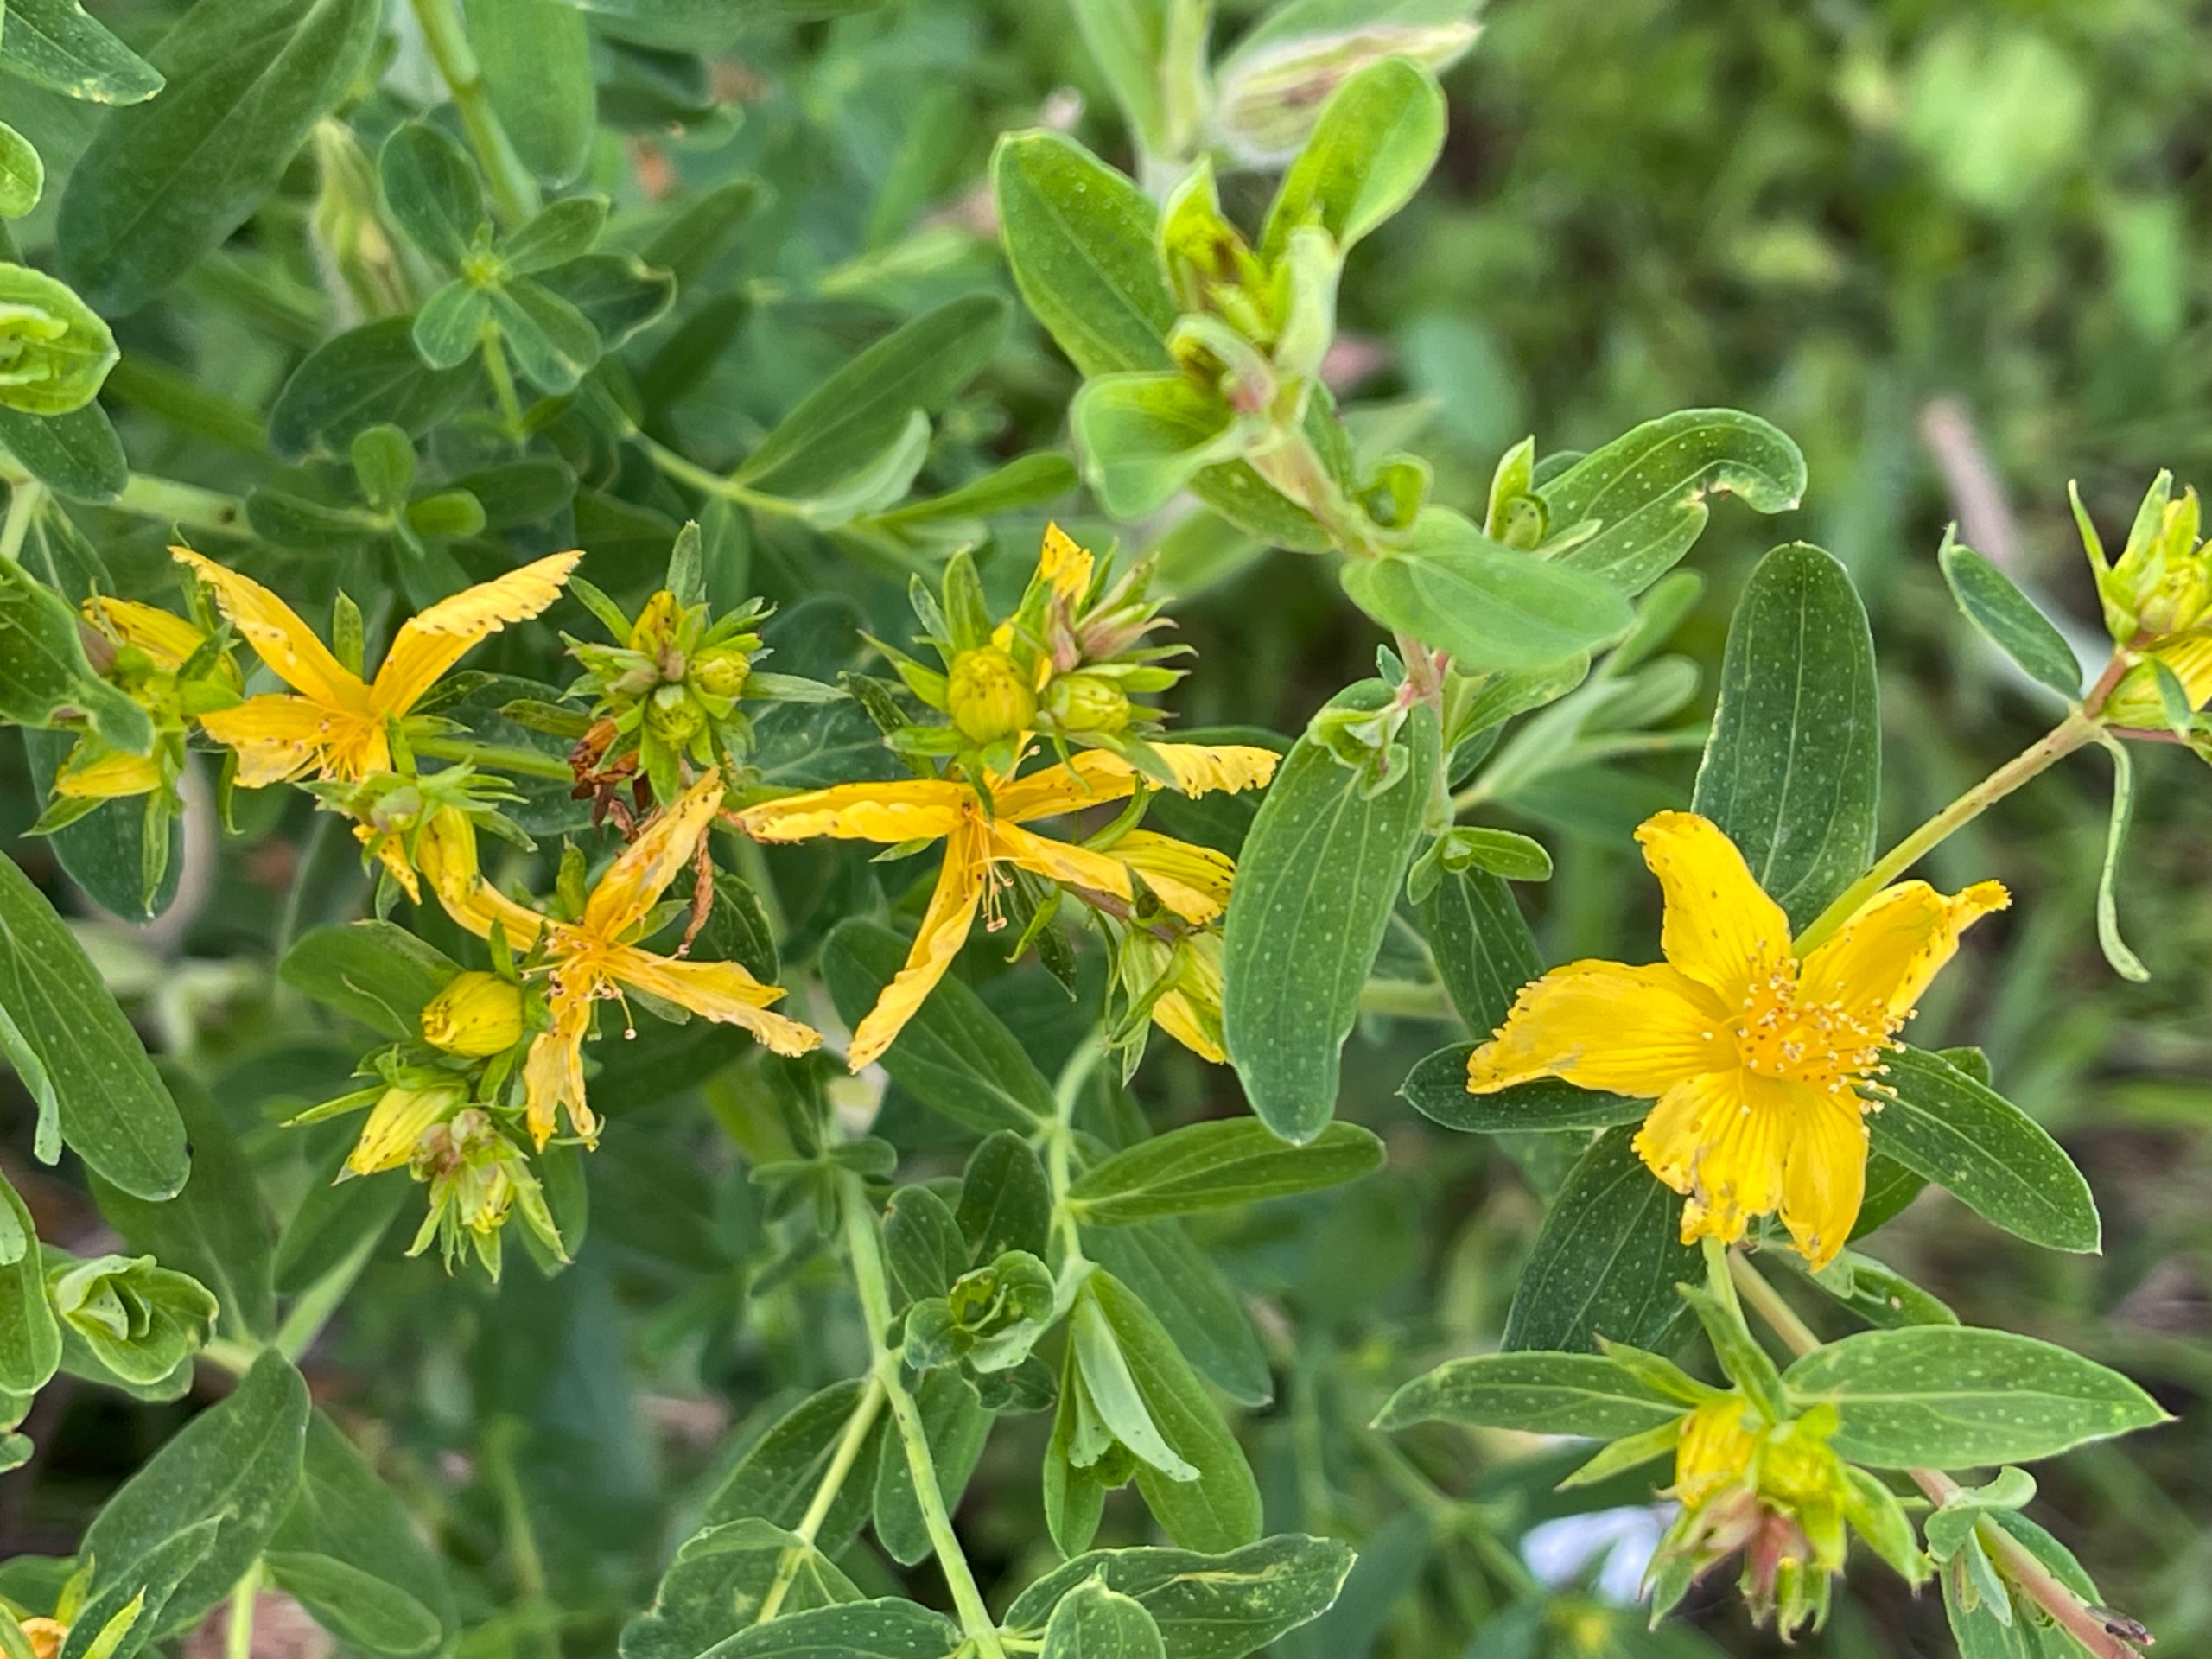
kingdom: Plantae
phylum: Tracheophyta
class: Magnoliopsida
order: Malpighiales
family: Hypericaceae
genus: Hypericum
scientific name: Hypericum perforatum
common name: Prikbladet perikon
